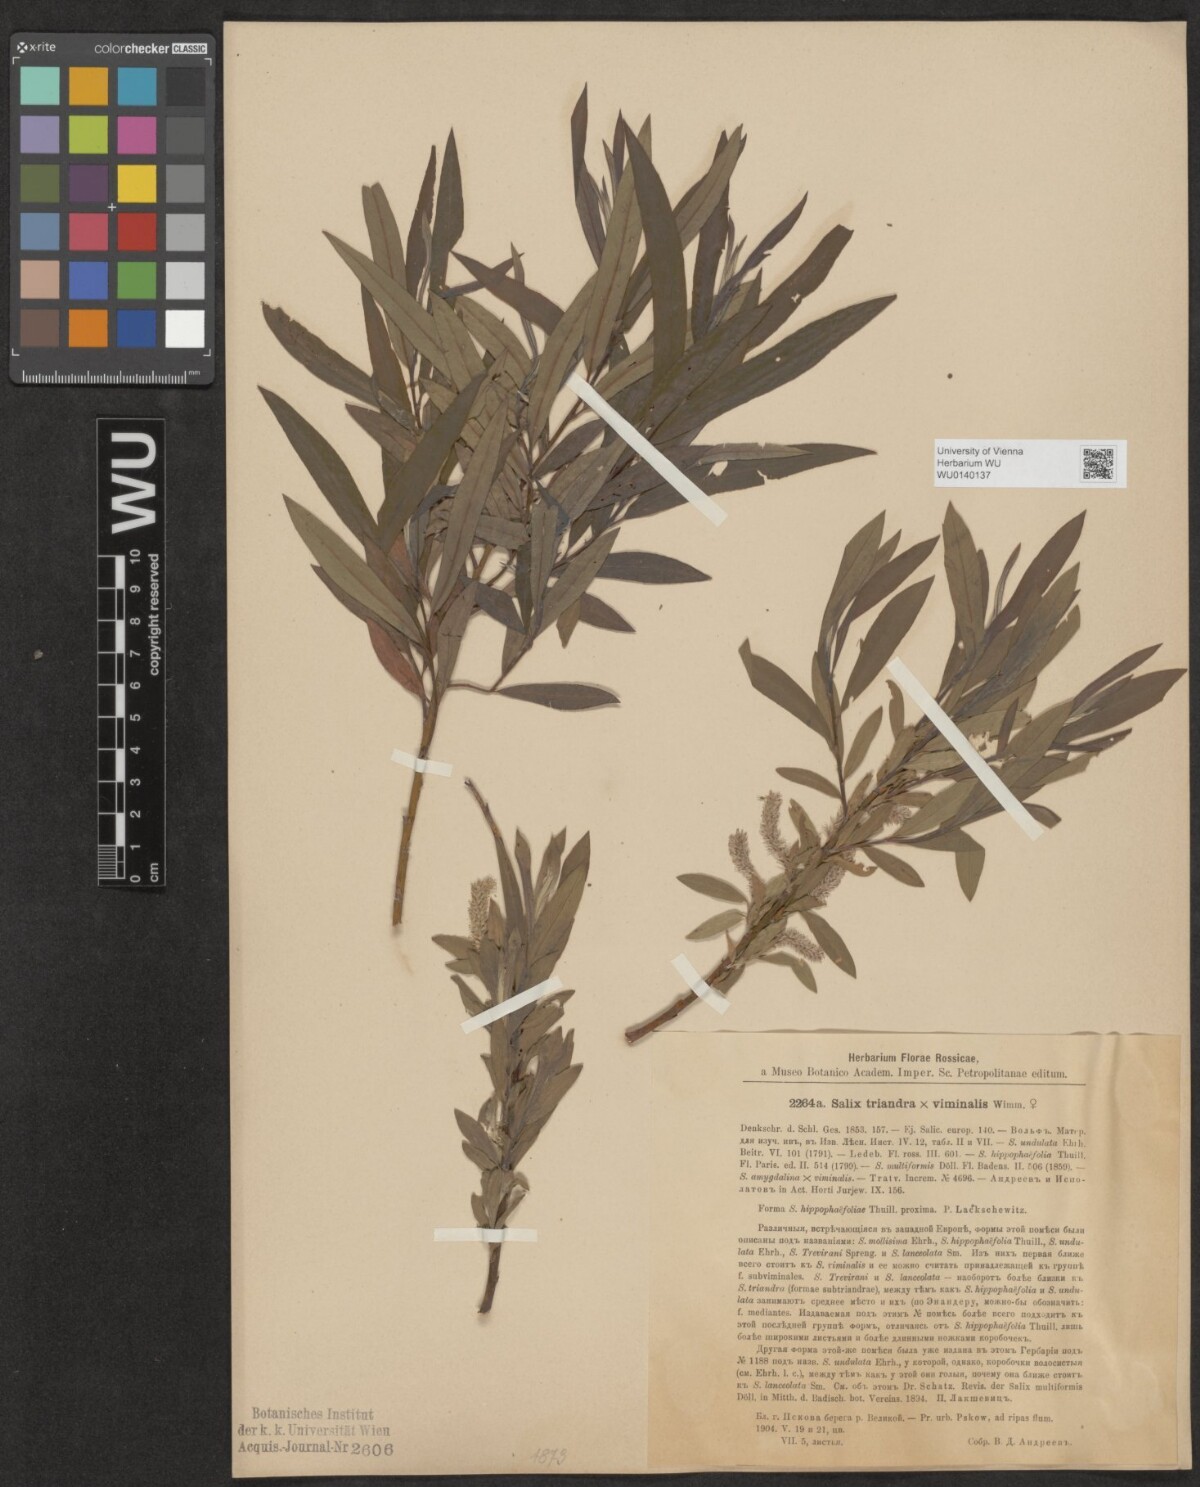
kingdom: Plantae
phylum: Tracheophyta
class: Magnoliopsida
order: Malpighiales
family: Salicaceae
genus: Salix
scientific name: Salix mollissima
